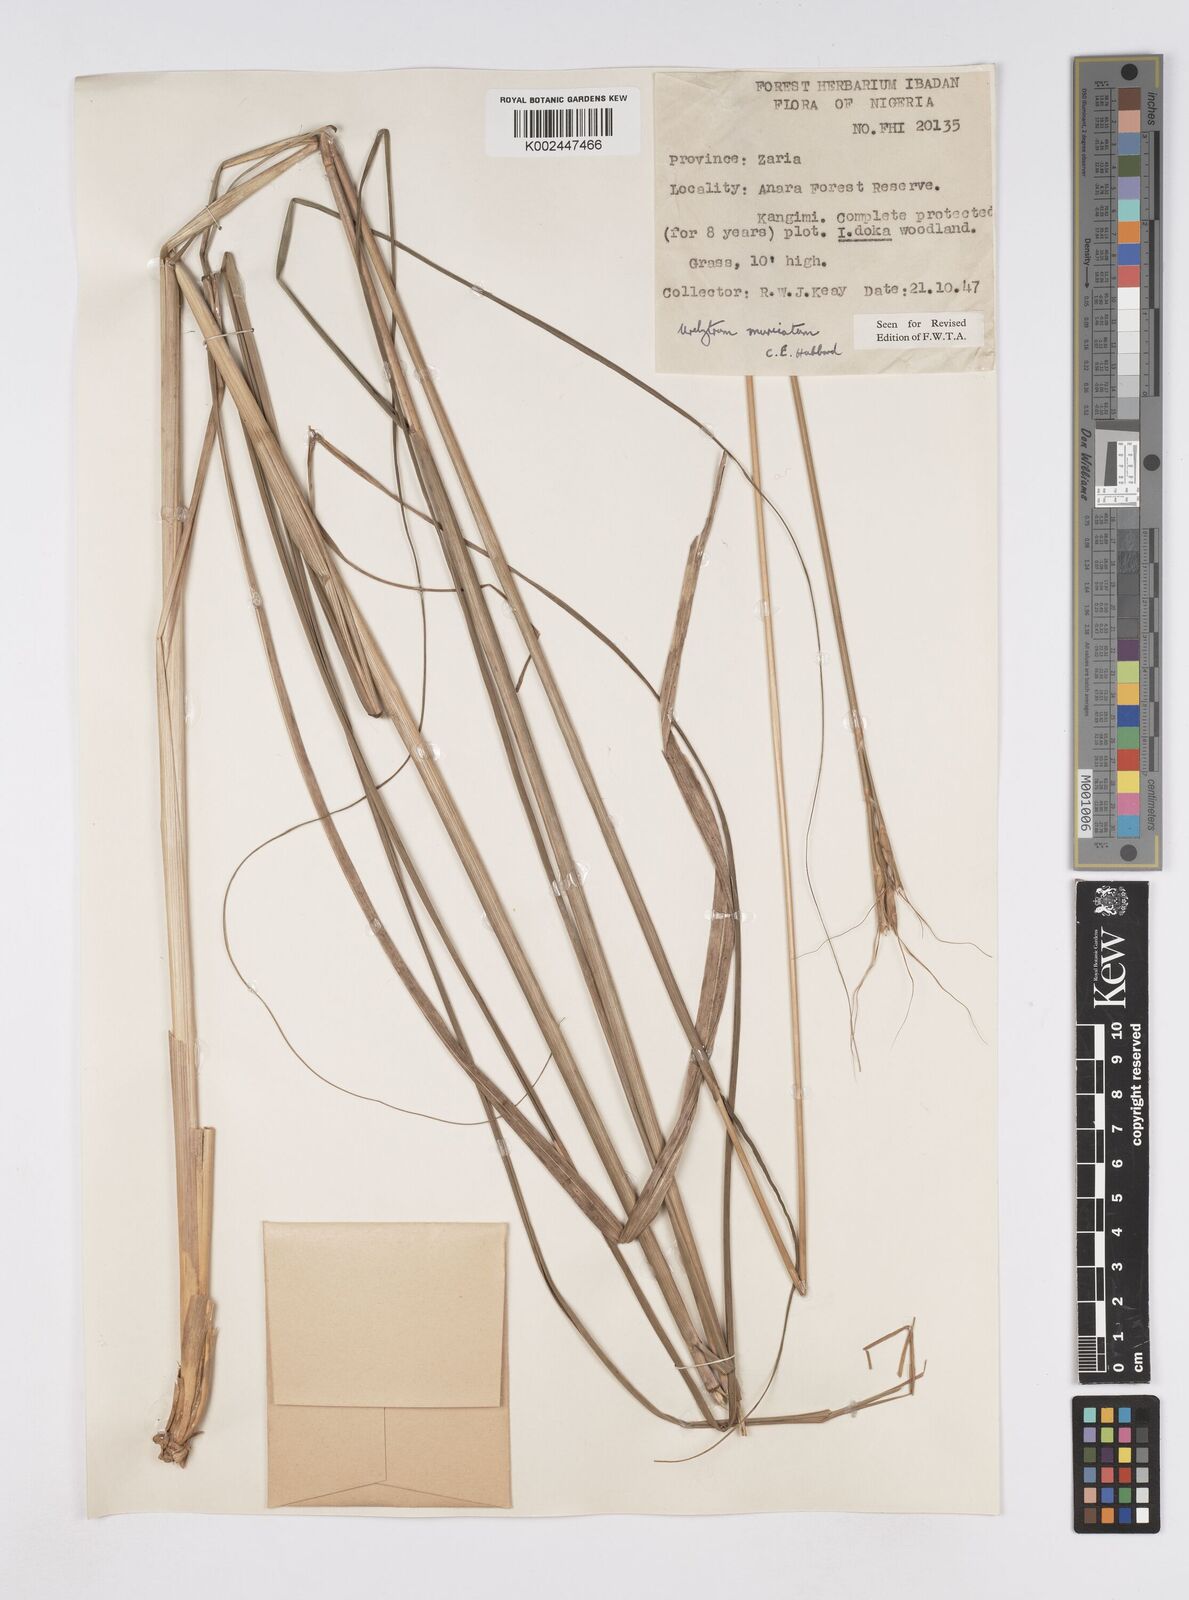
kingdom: Plantae
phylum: Tracheophyta
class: Liliopsida
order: Poales
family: Poaceae
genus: Urelytrum
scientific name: Urelytrum muricatum
